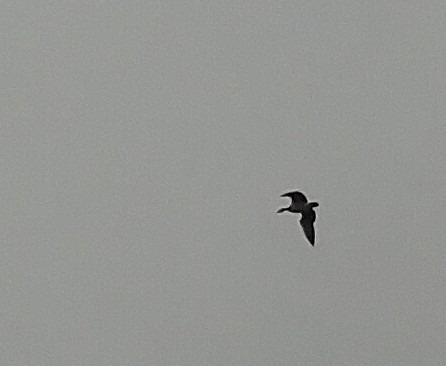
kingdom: Animalia
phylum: Chordata
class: Aves
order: Anseriformes
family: Anatidae
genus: Branta
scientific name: Branta leucopsis
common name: Bramgås
